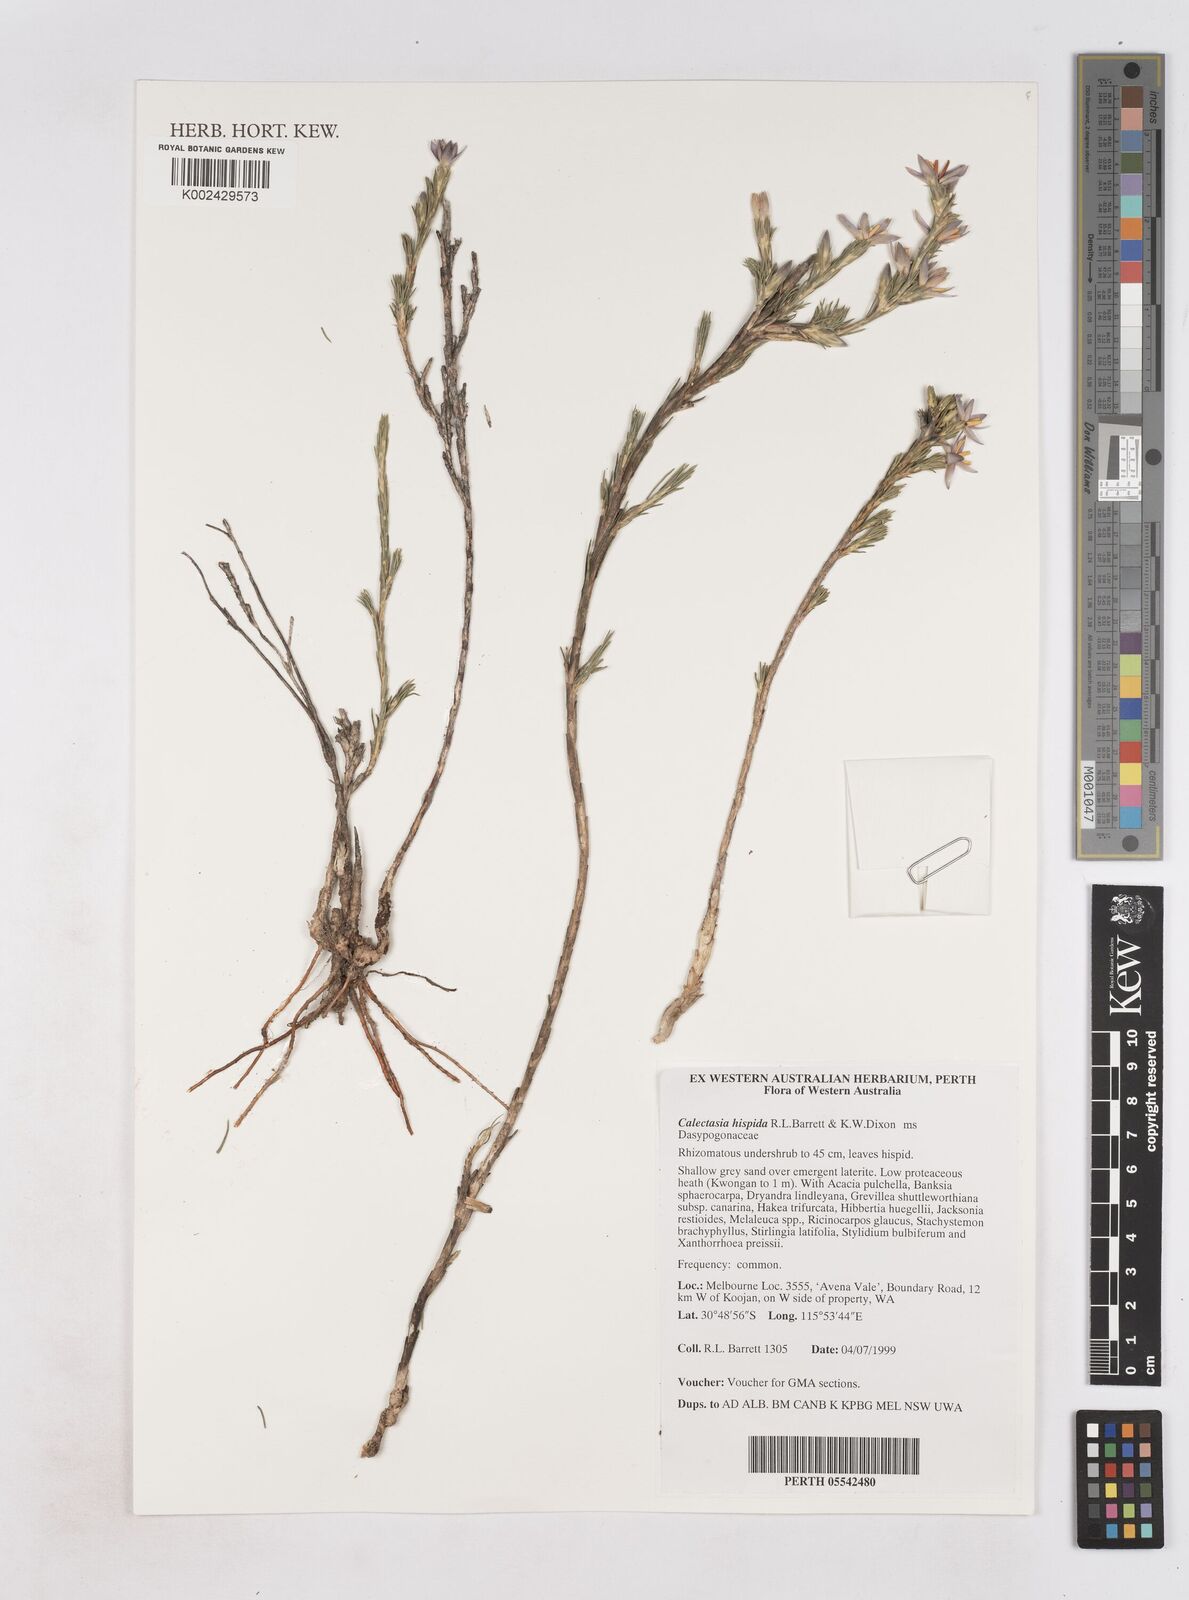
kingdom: Plantae
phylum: Tracheophyta
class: Liliopsida
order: Arecales
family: Dasypogonaceae
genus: Calectasia
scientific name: Calectasia hispida
